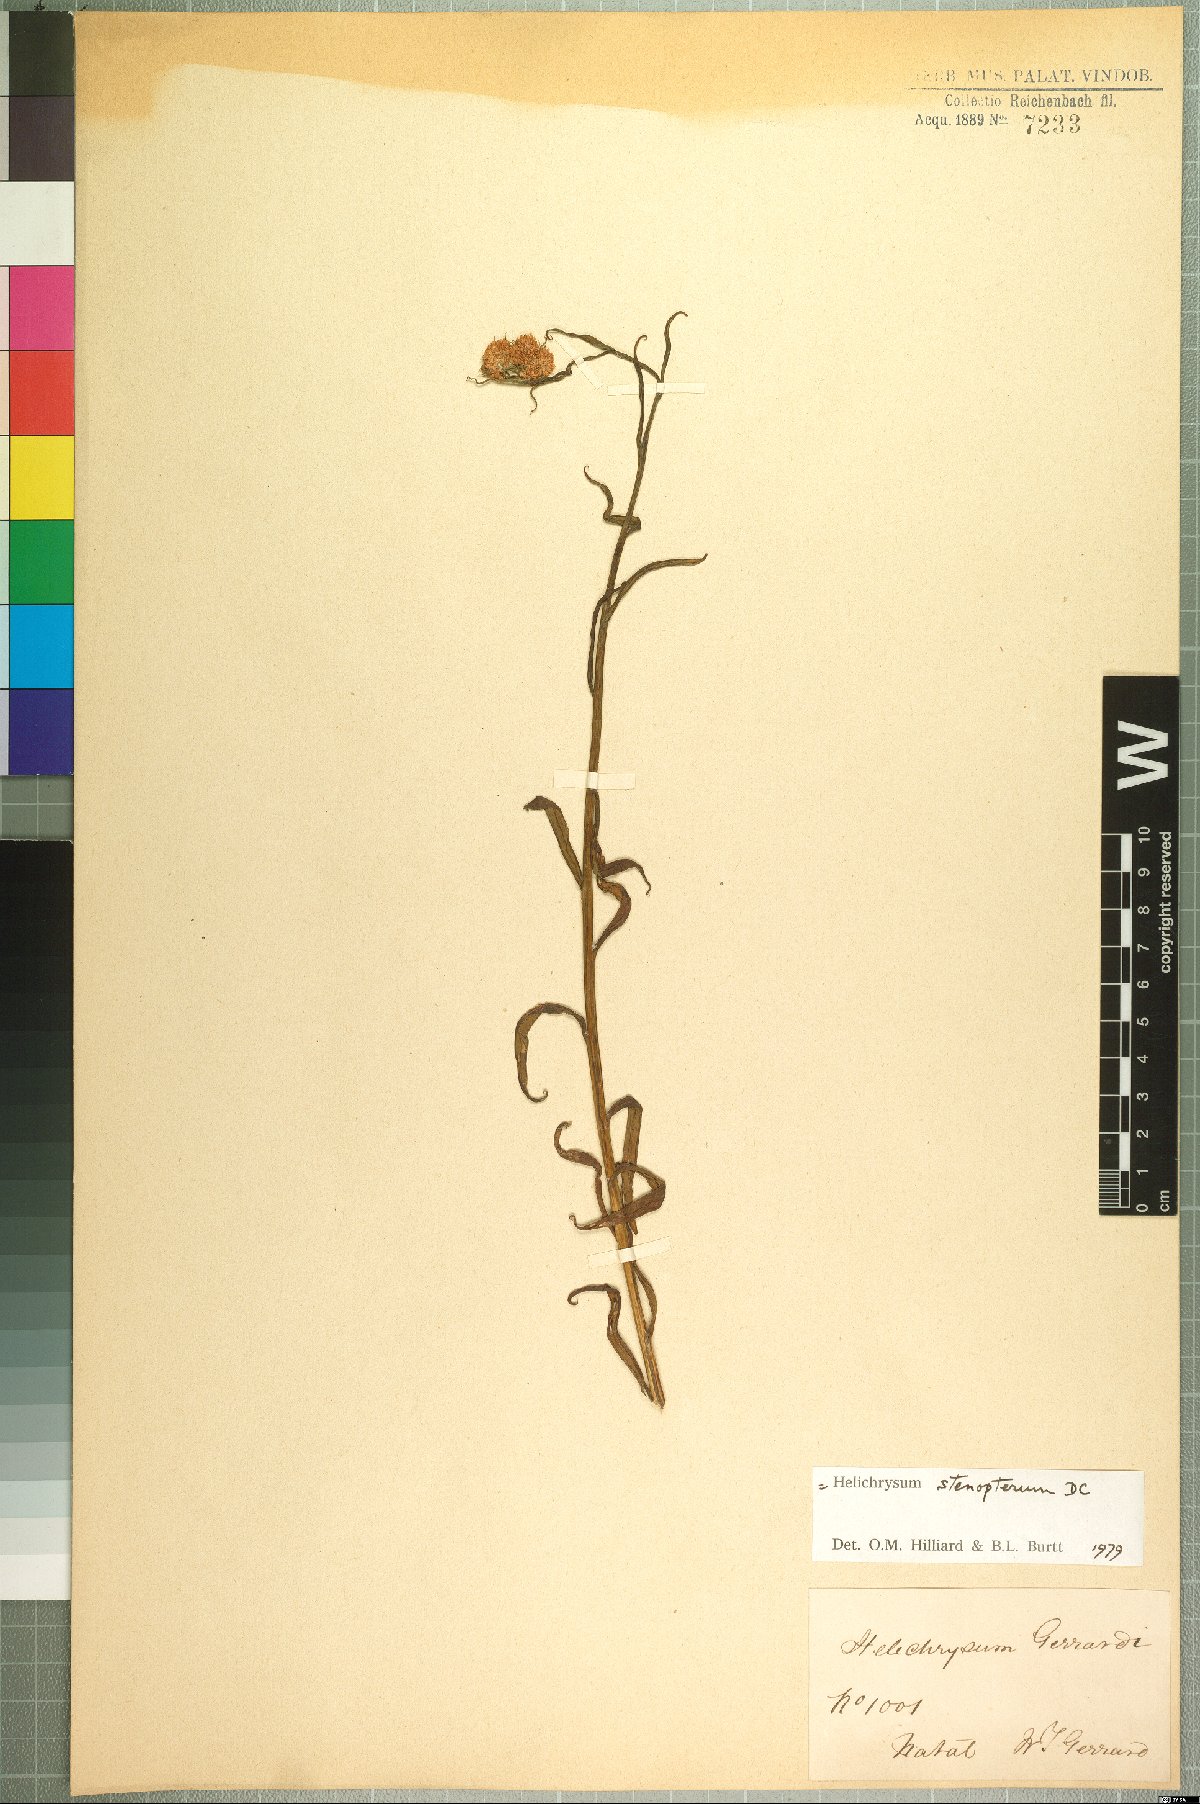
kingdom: Plantae
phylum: Tracheophyta
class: Magnoliopsida
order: Asterales
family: Asteraceae
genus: Helichrysum
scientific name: Helichrysum stenopterum
